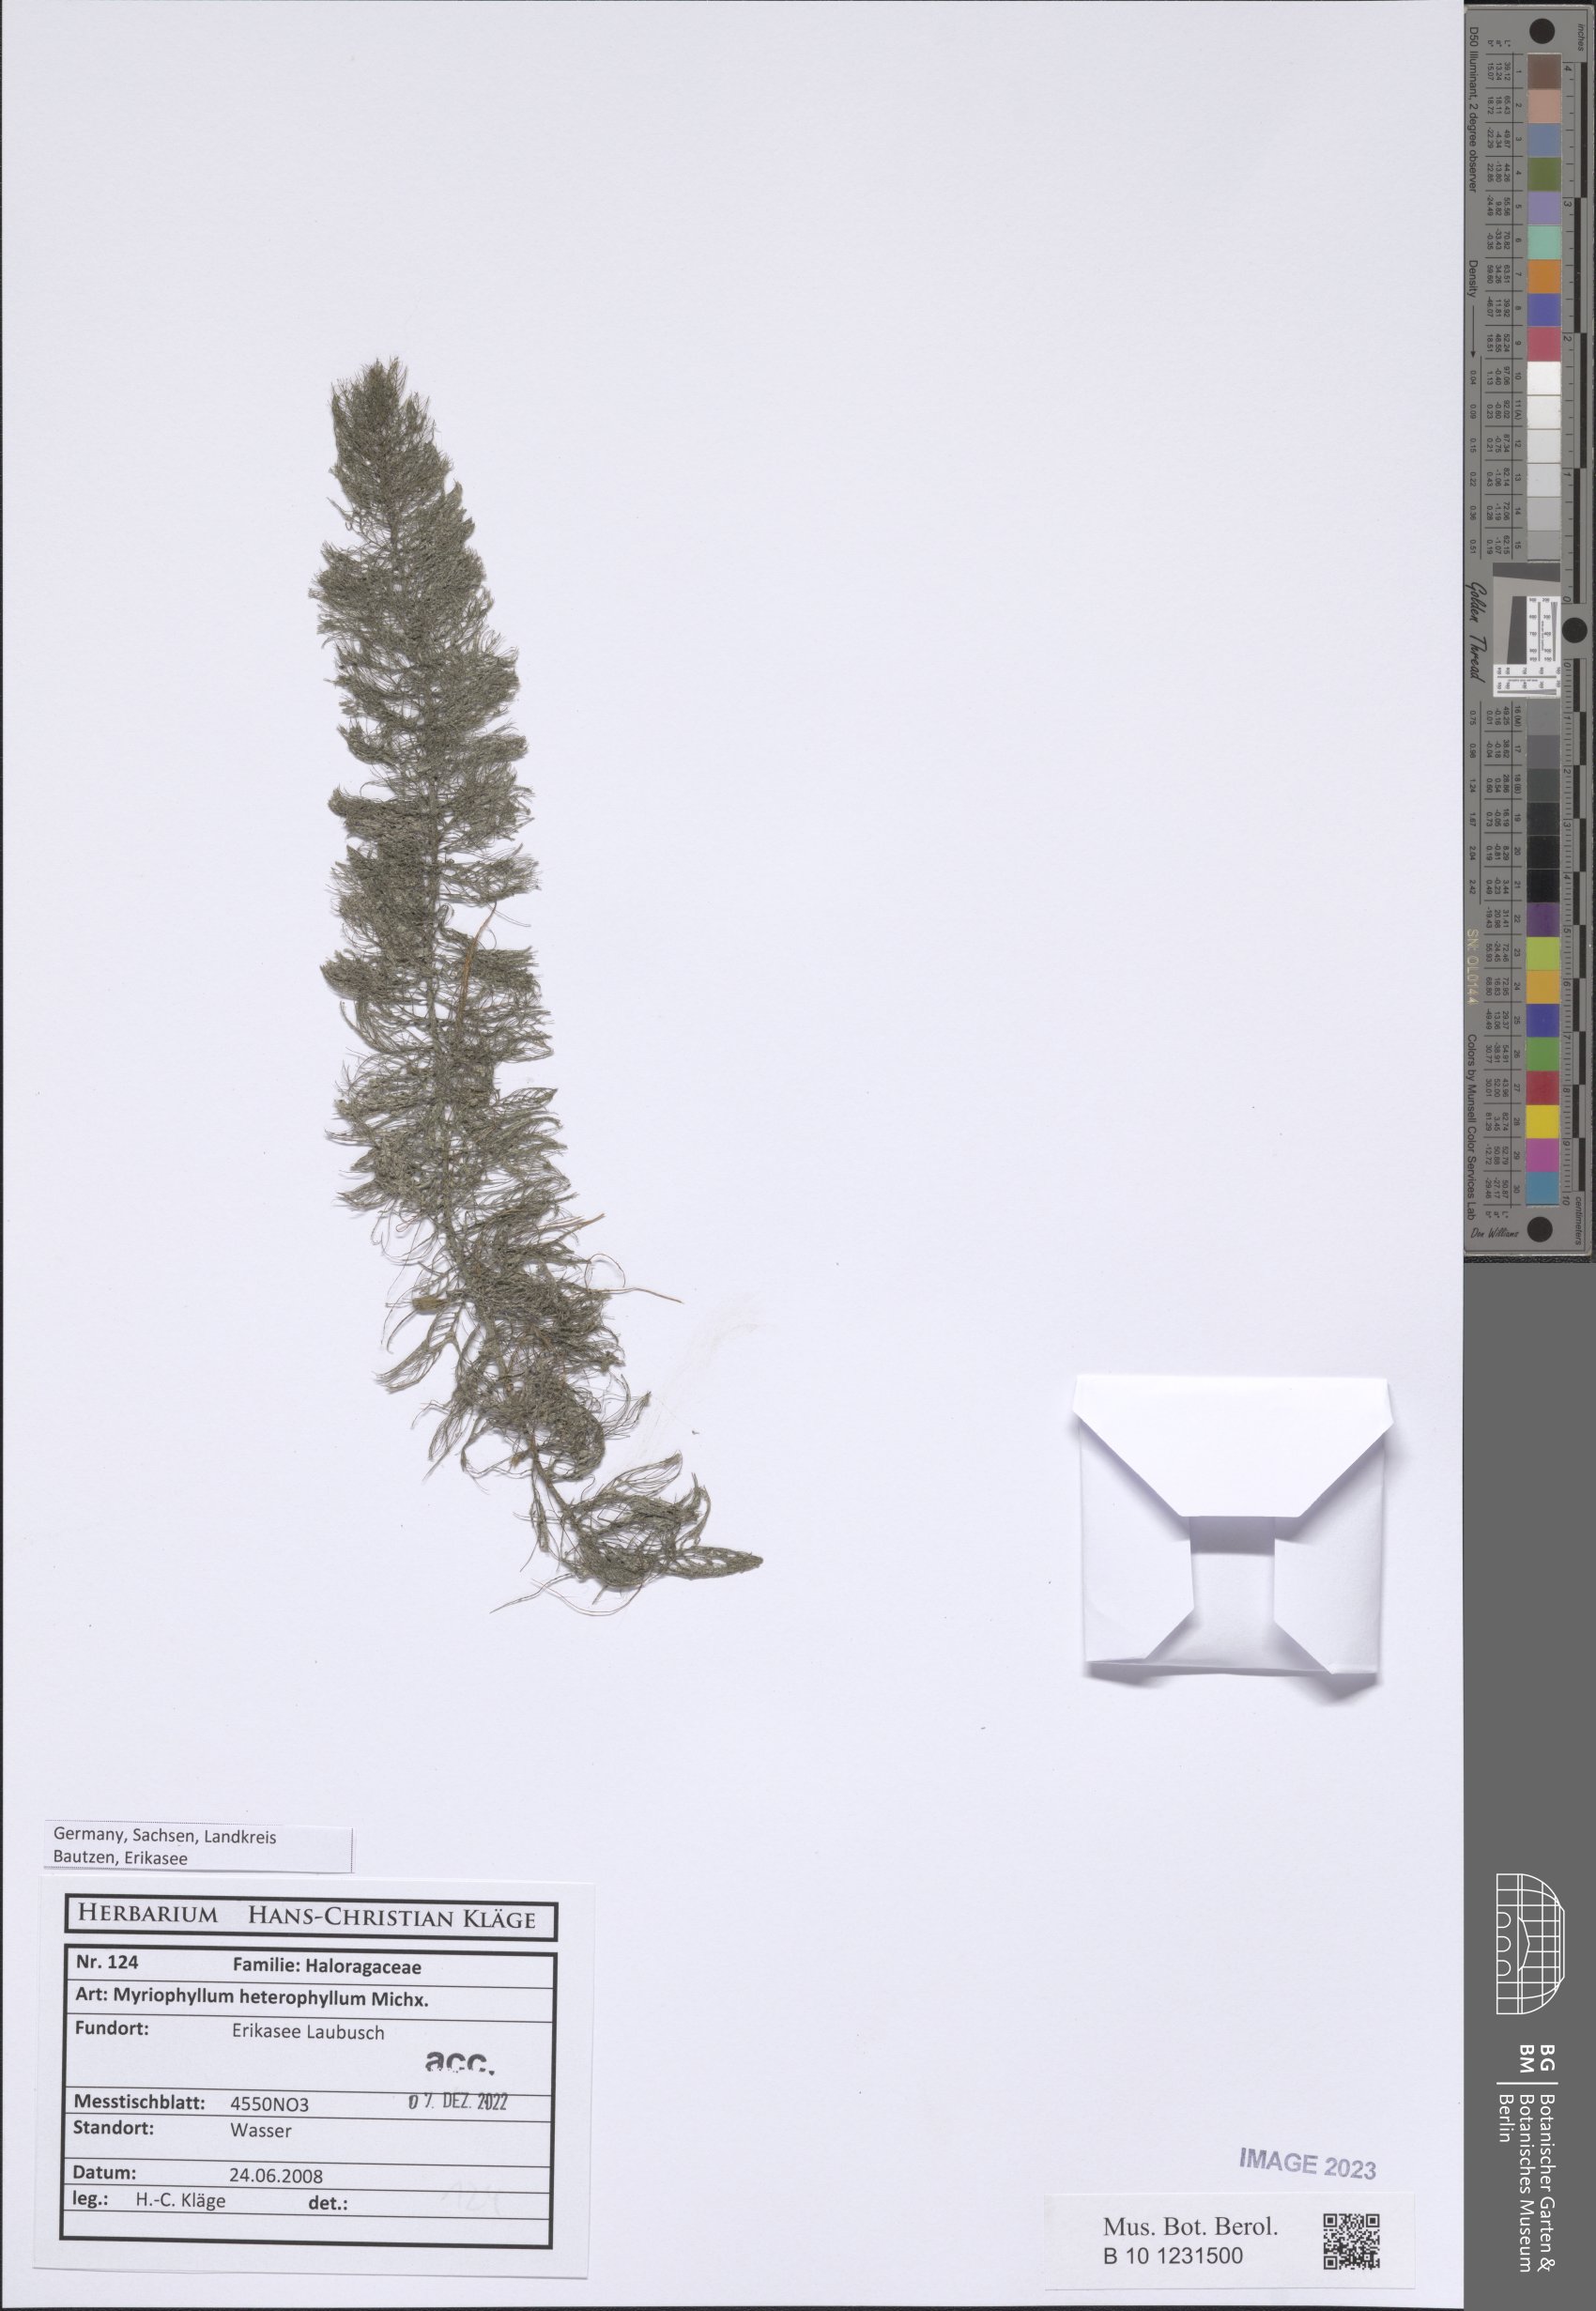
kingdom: Plantae
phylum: Tracheophyta
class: Magnoliopsida
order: Saxifragales
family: Haloragaceae
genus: Myriophyllum
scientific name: Myriophyllum verticillatum
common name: Whorled water-milfoil
